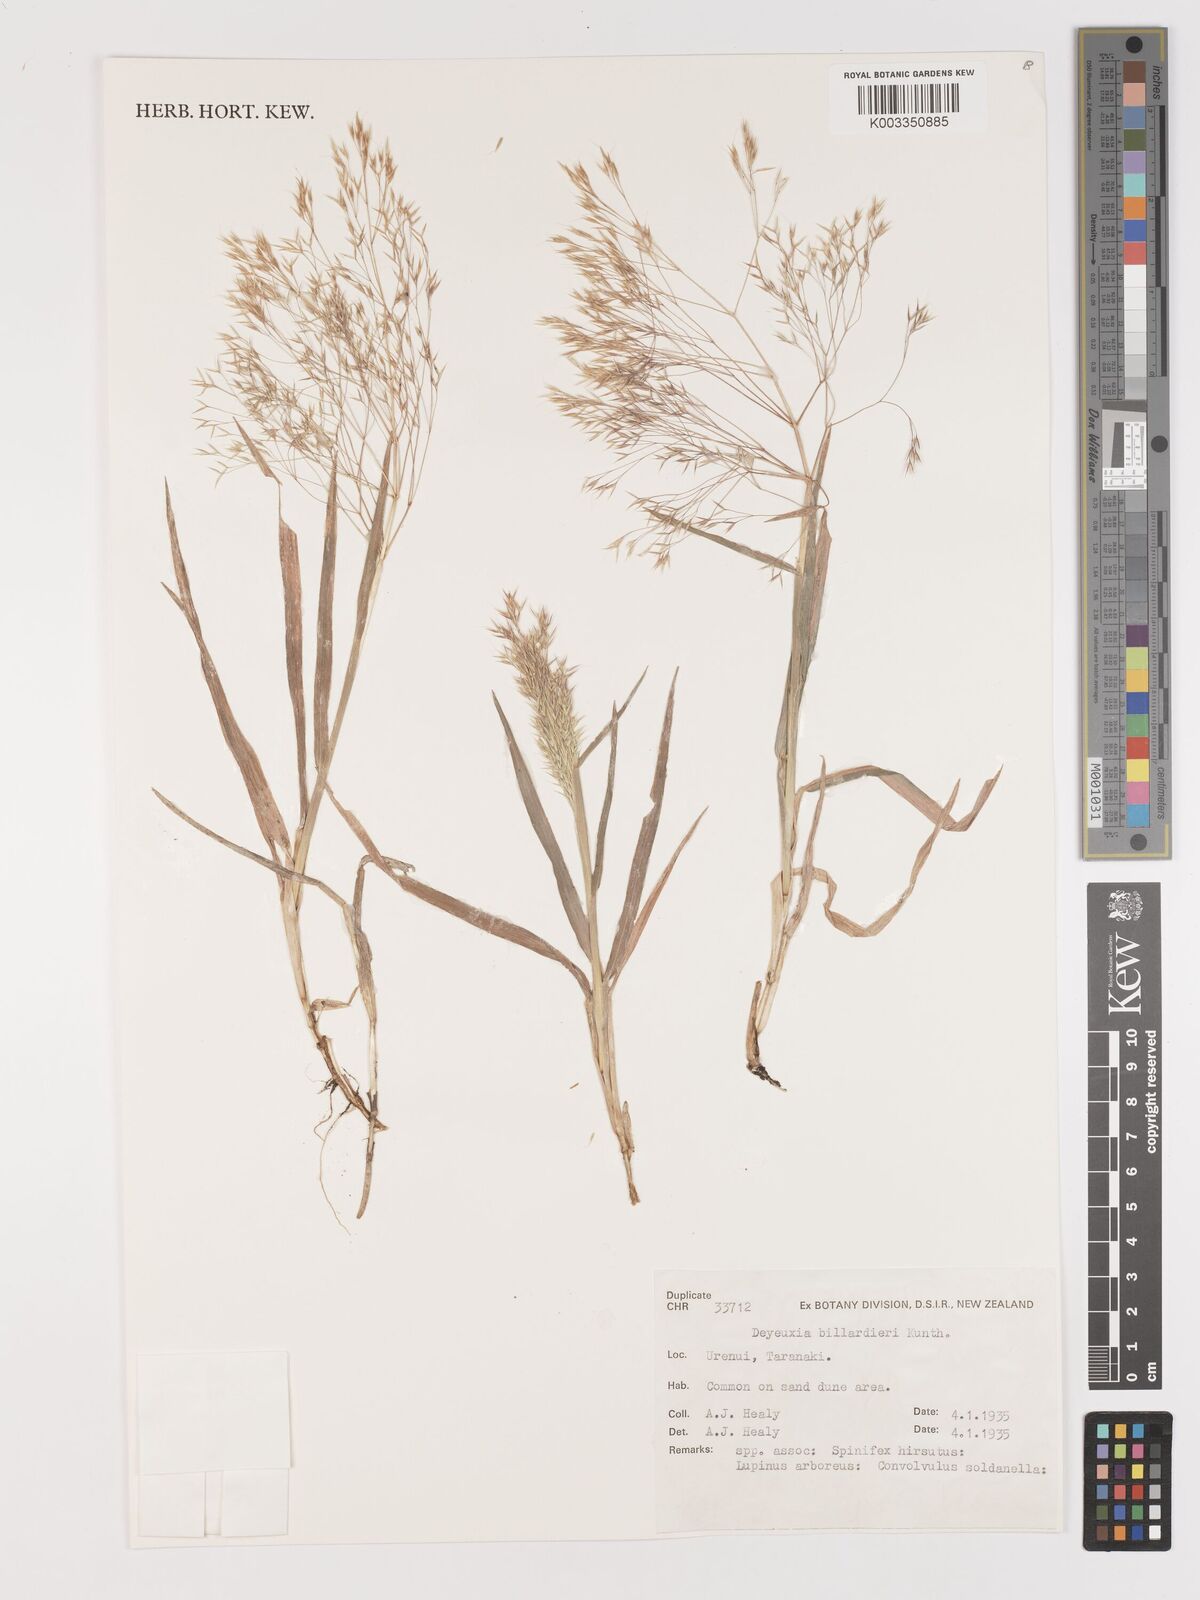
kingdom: Plantae
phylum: Tracheophyta
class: Liliopsida
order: Poales
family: Poaceae
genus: Lachnagrostis
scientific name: Lachnagrostis billardierei
